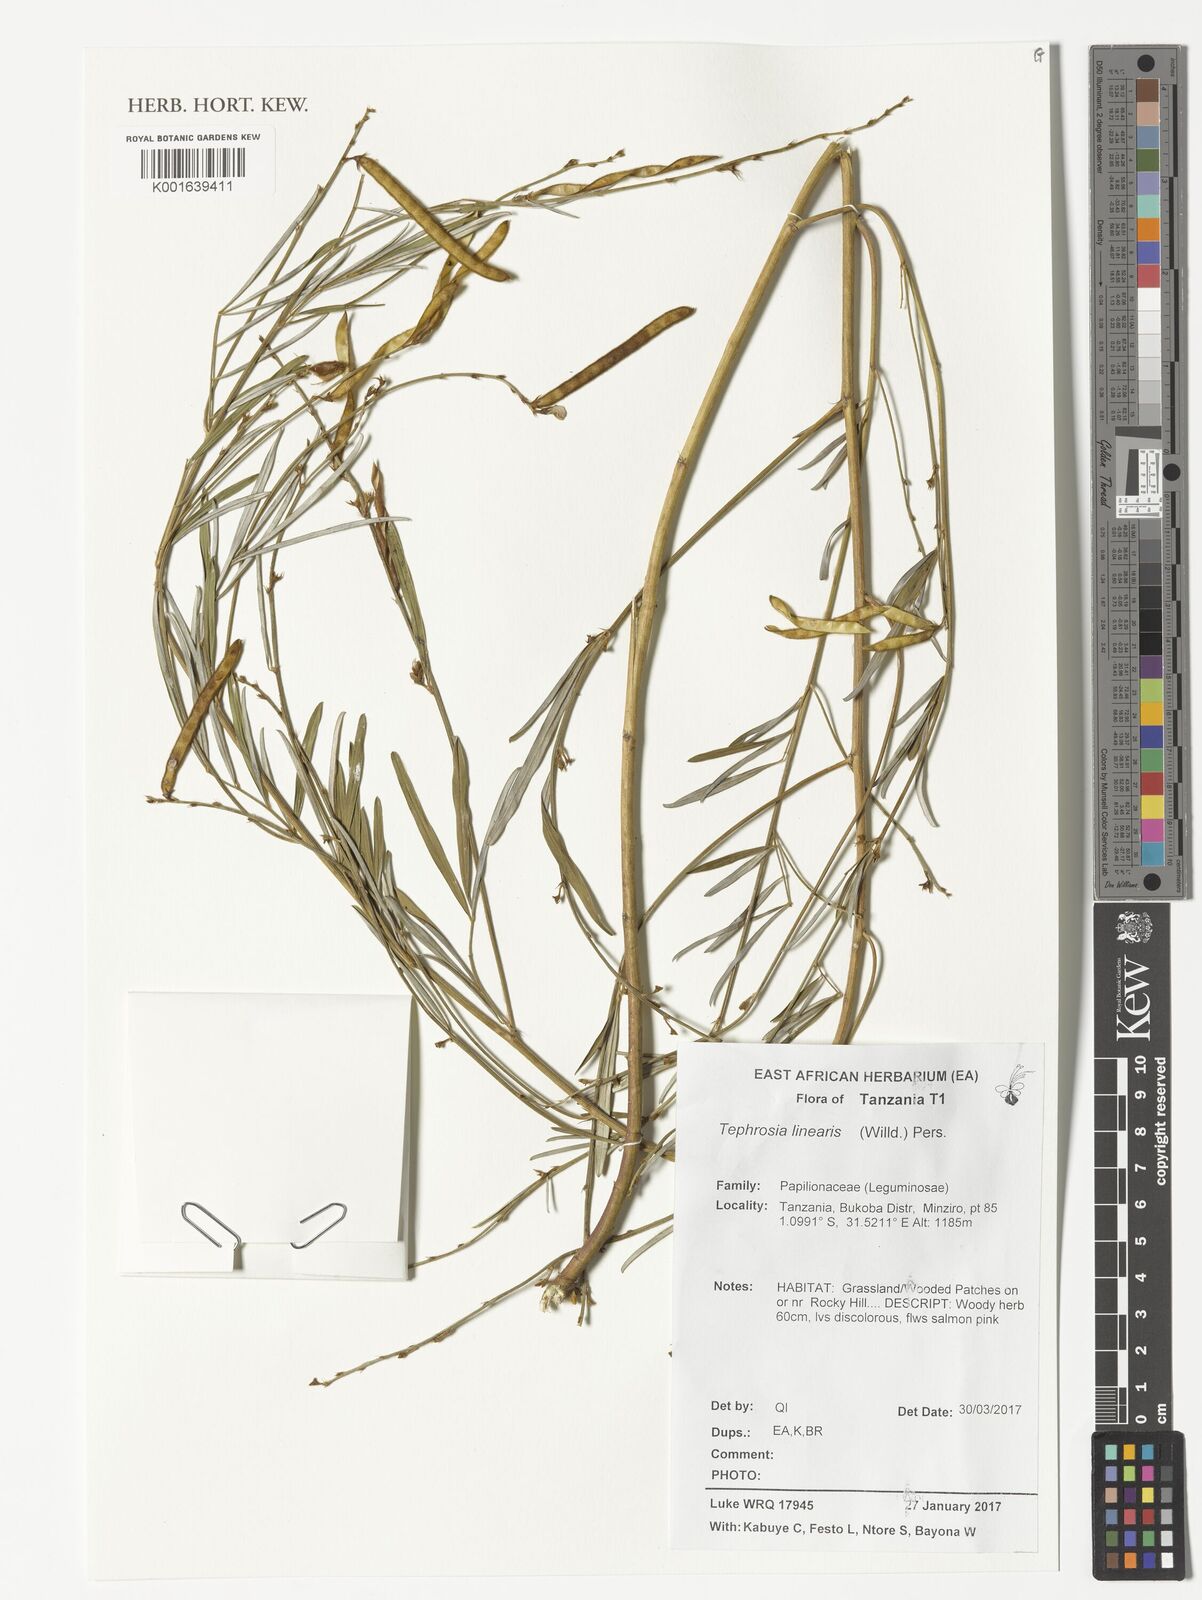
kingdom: Plantae
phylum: Tracheophyta
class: Magnoliopsida
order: Fabales
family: Fabaceae
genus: Tephrosia
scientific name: Tephrosia linearis
